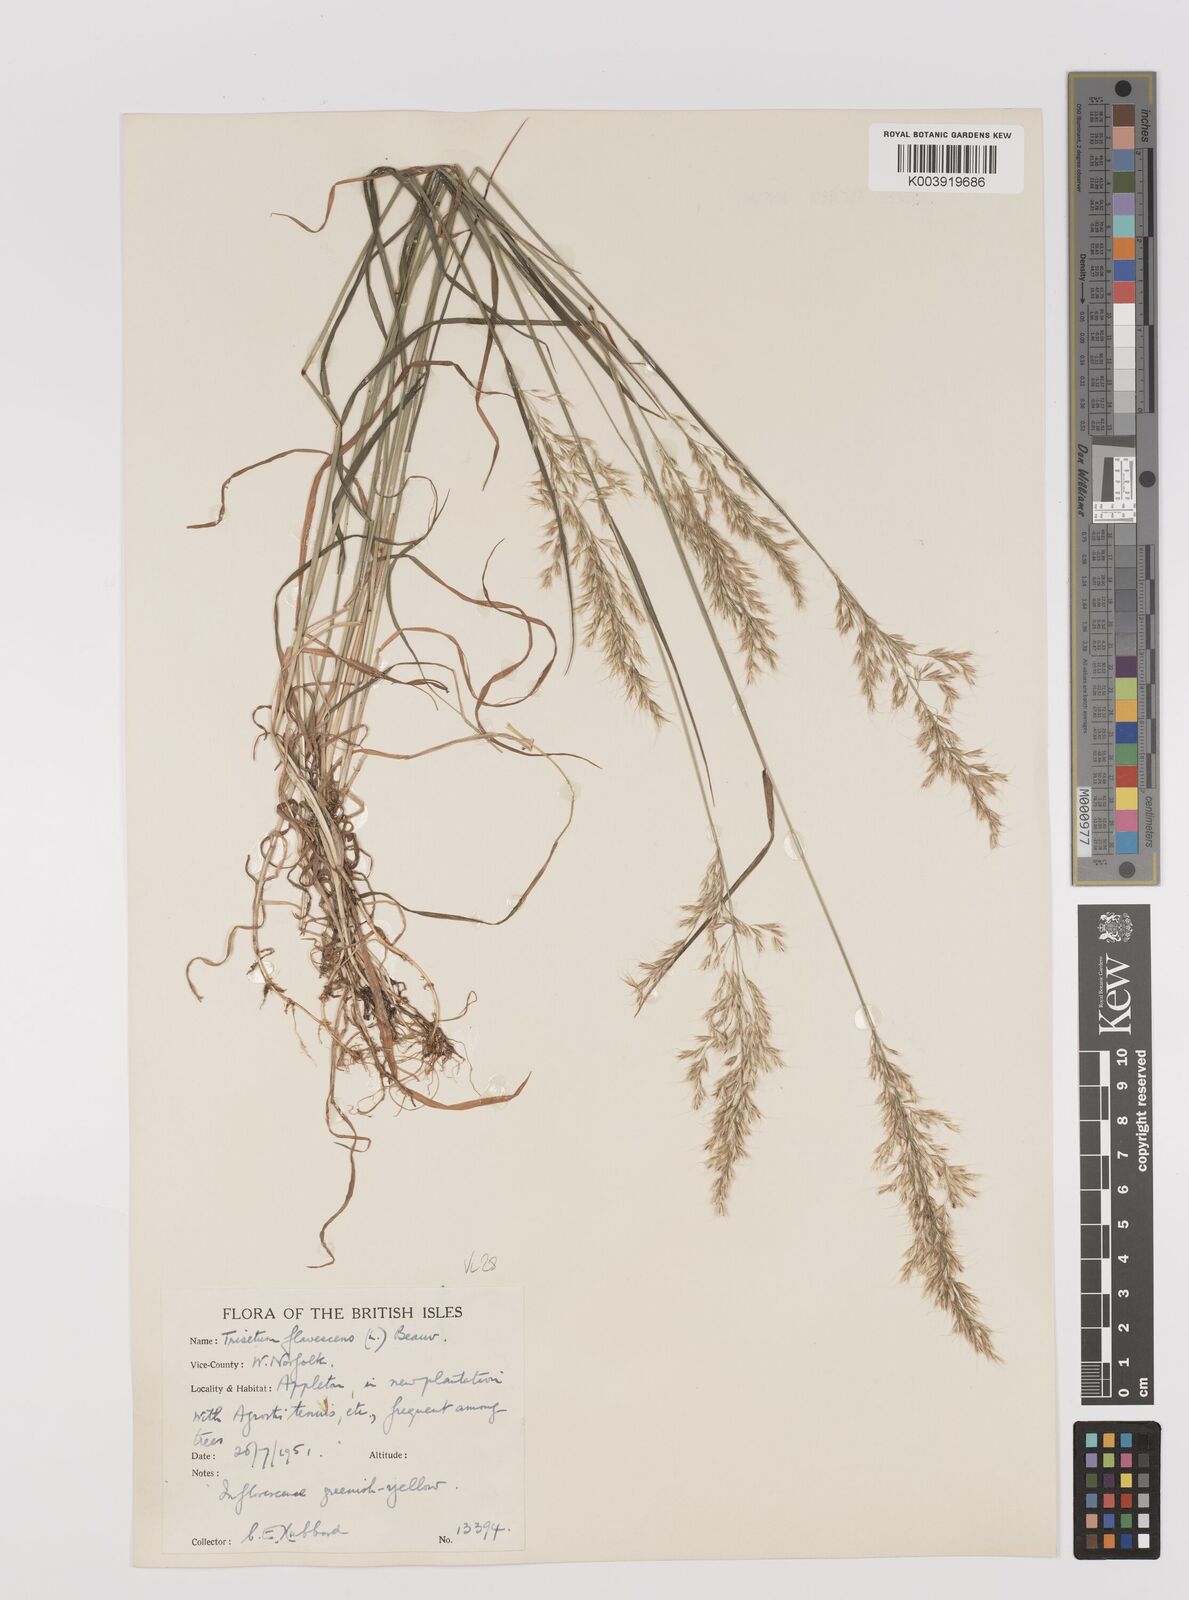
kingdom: Plantae
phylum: Tracheophyta
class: Liliopsida
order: Poales
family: Poaceae
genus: Trisetum
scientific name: Trisetum flavescens
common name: Yellow oat-grass
